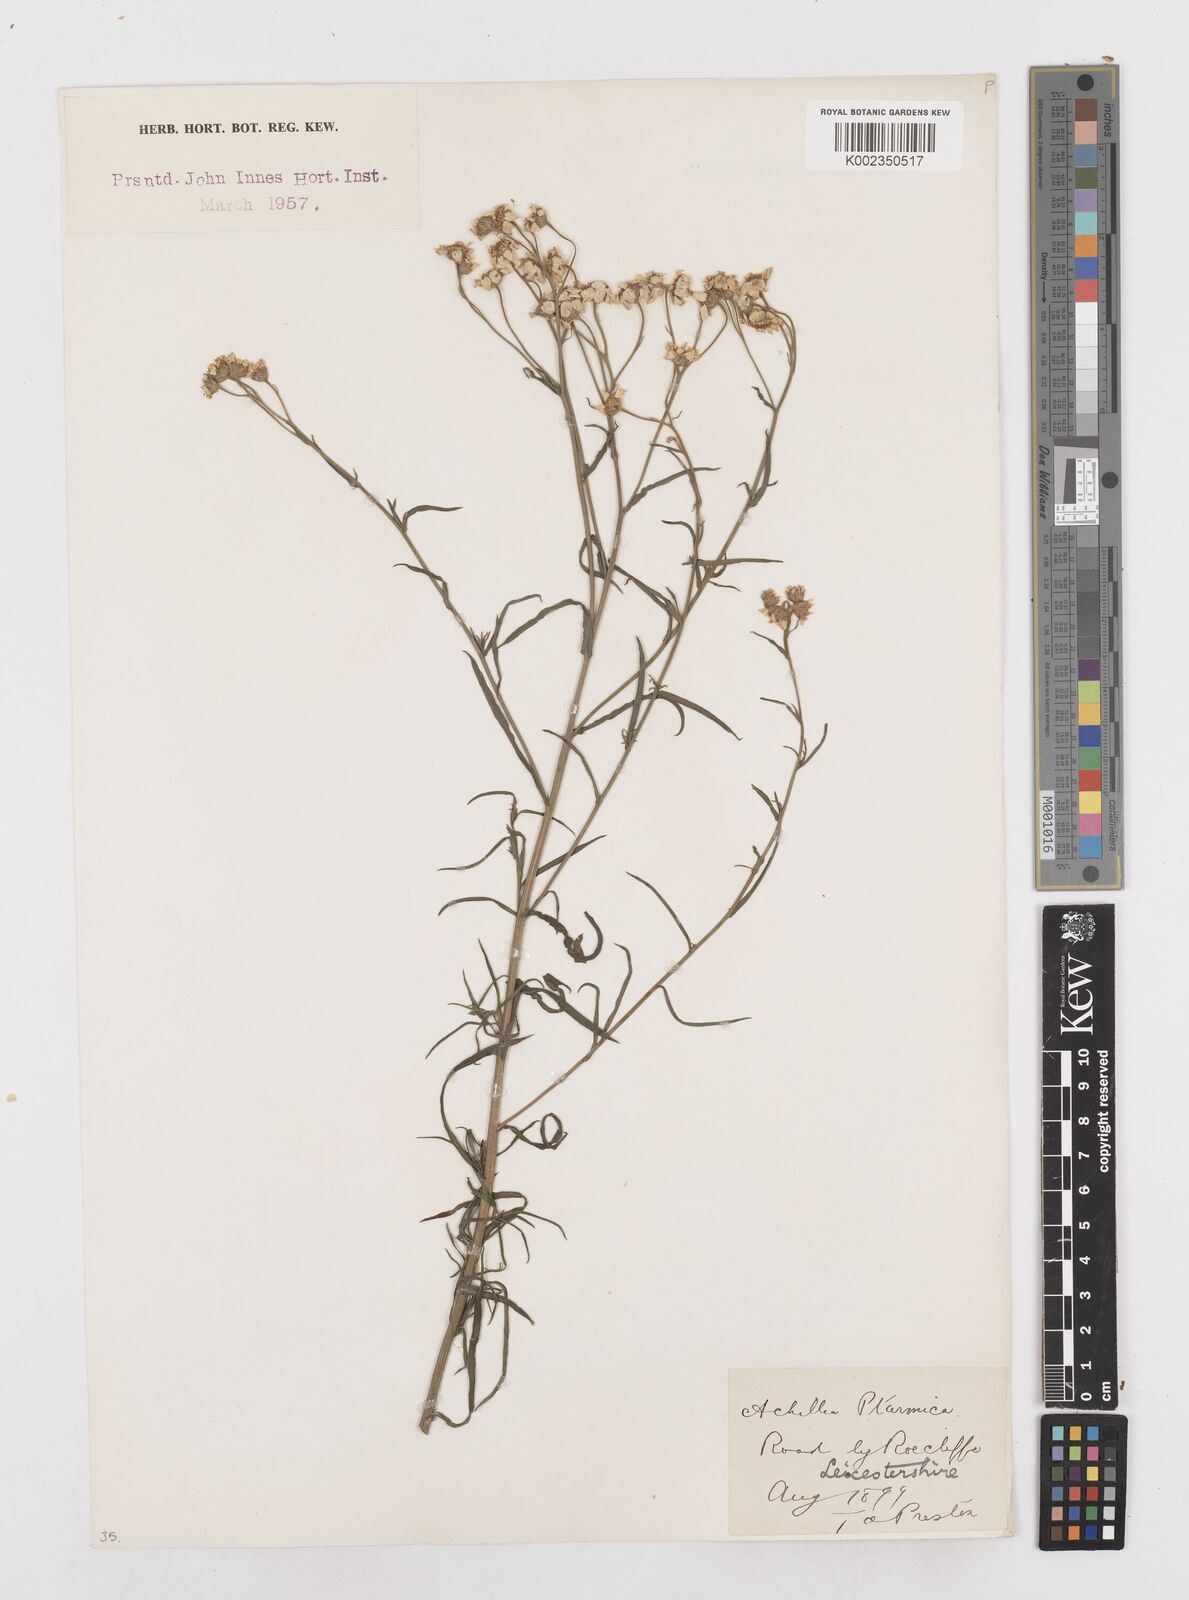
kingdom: Plantae
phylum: Tracheophyta
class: Magnoliopsida
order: Asterales
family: Asteraceae
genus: Achillea
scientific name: Achillea ptarmica
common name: Sneezeweed
